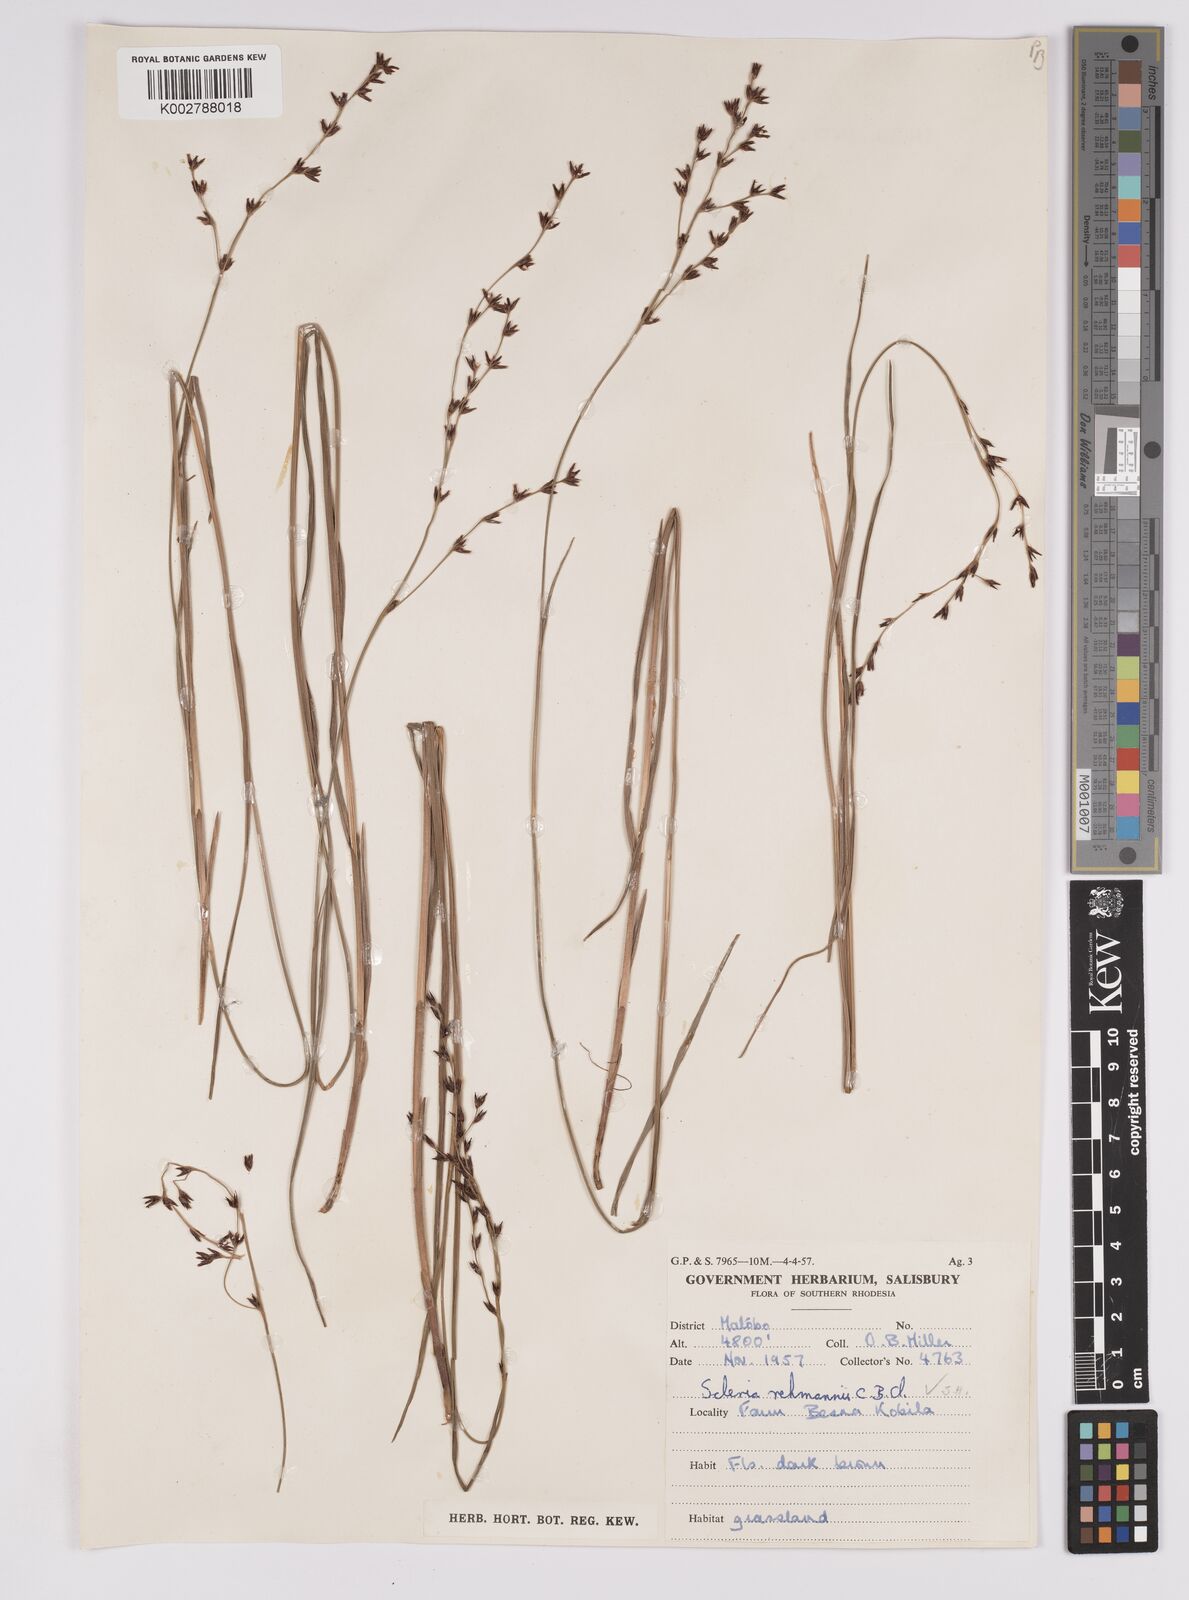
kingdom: Plantae
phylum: Tracheophyta
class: Liliopsida
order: Poales
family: Cyperaceae
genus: Scleria
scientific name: Scleria rehmannii
